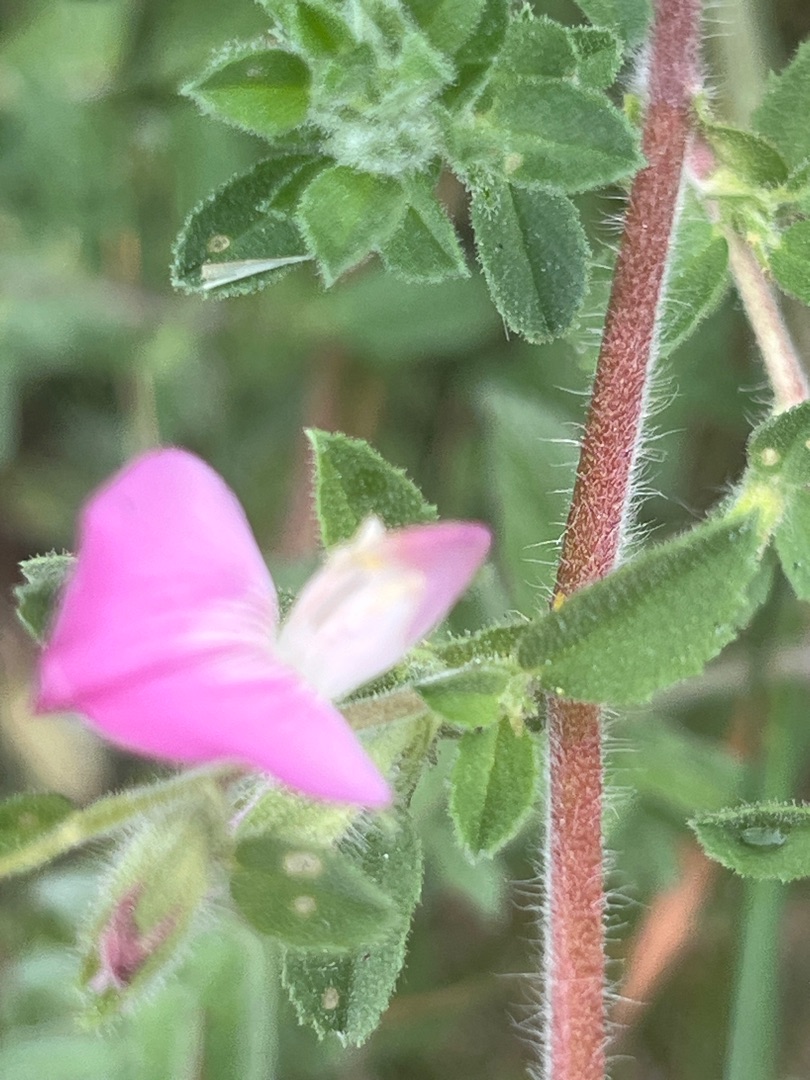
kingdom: Plantae
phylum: Tracheophyta
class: Magnoliopsida
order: Fabales
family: Fabaceae
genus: Ononis
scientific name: Ononis spinosa
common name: Mark-krageklo
